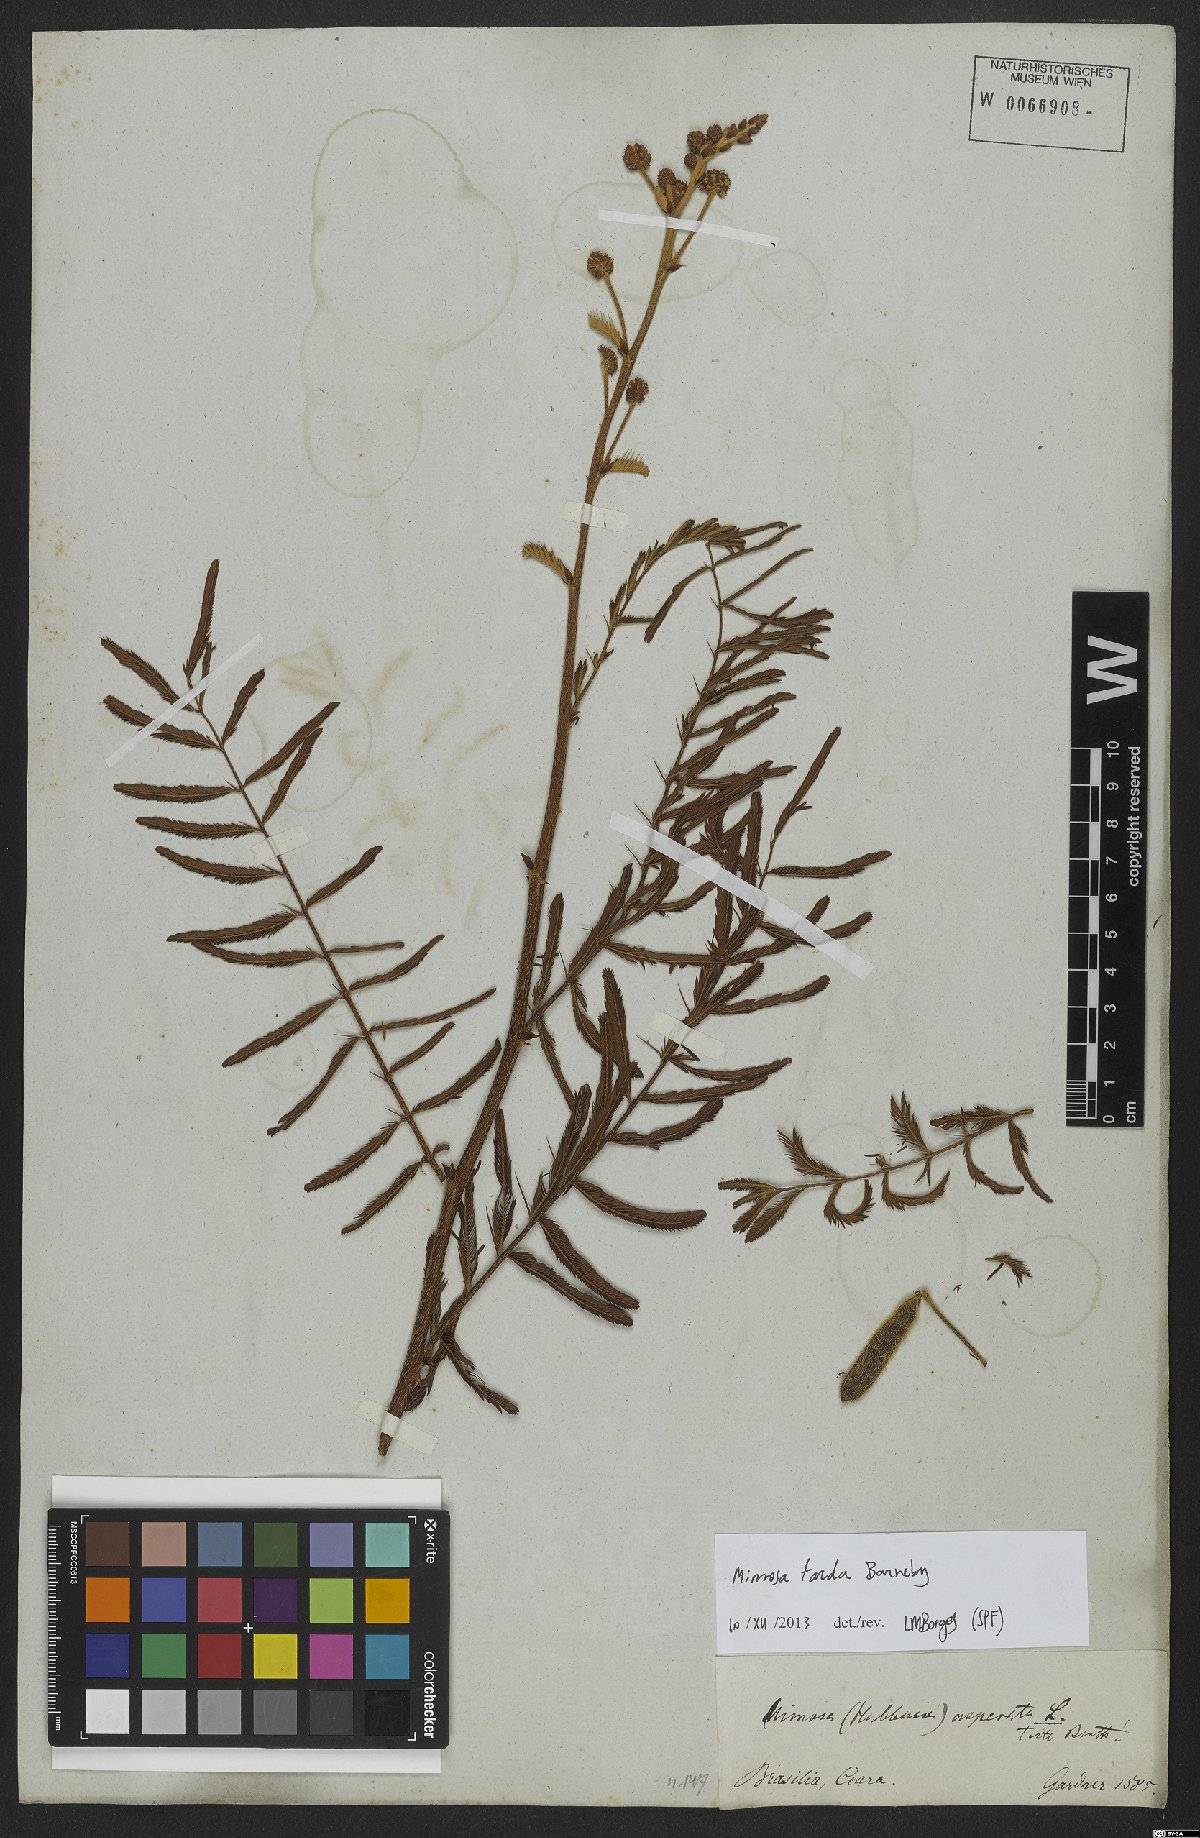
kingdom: Plantae
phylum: Tracheophyta
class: Magnoliopsida
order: Fabales
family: Fabaceae
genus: Mimosa
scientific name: Mimosa tarda
